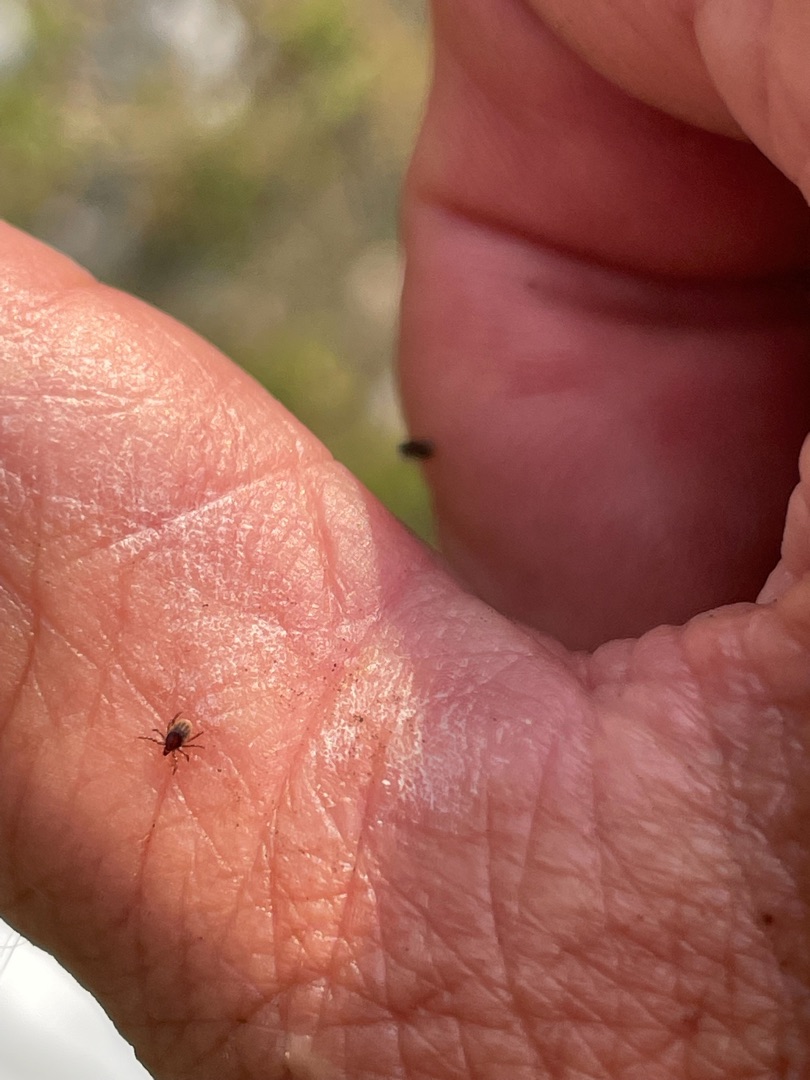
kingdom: Animalia
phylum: Arthropoda
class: Arachnida
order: Ixodida
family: Ixodidae
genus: Ixodes
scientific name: Ixodes ricinus
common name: Skovflåt
